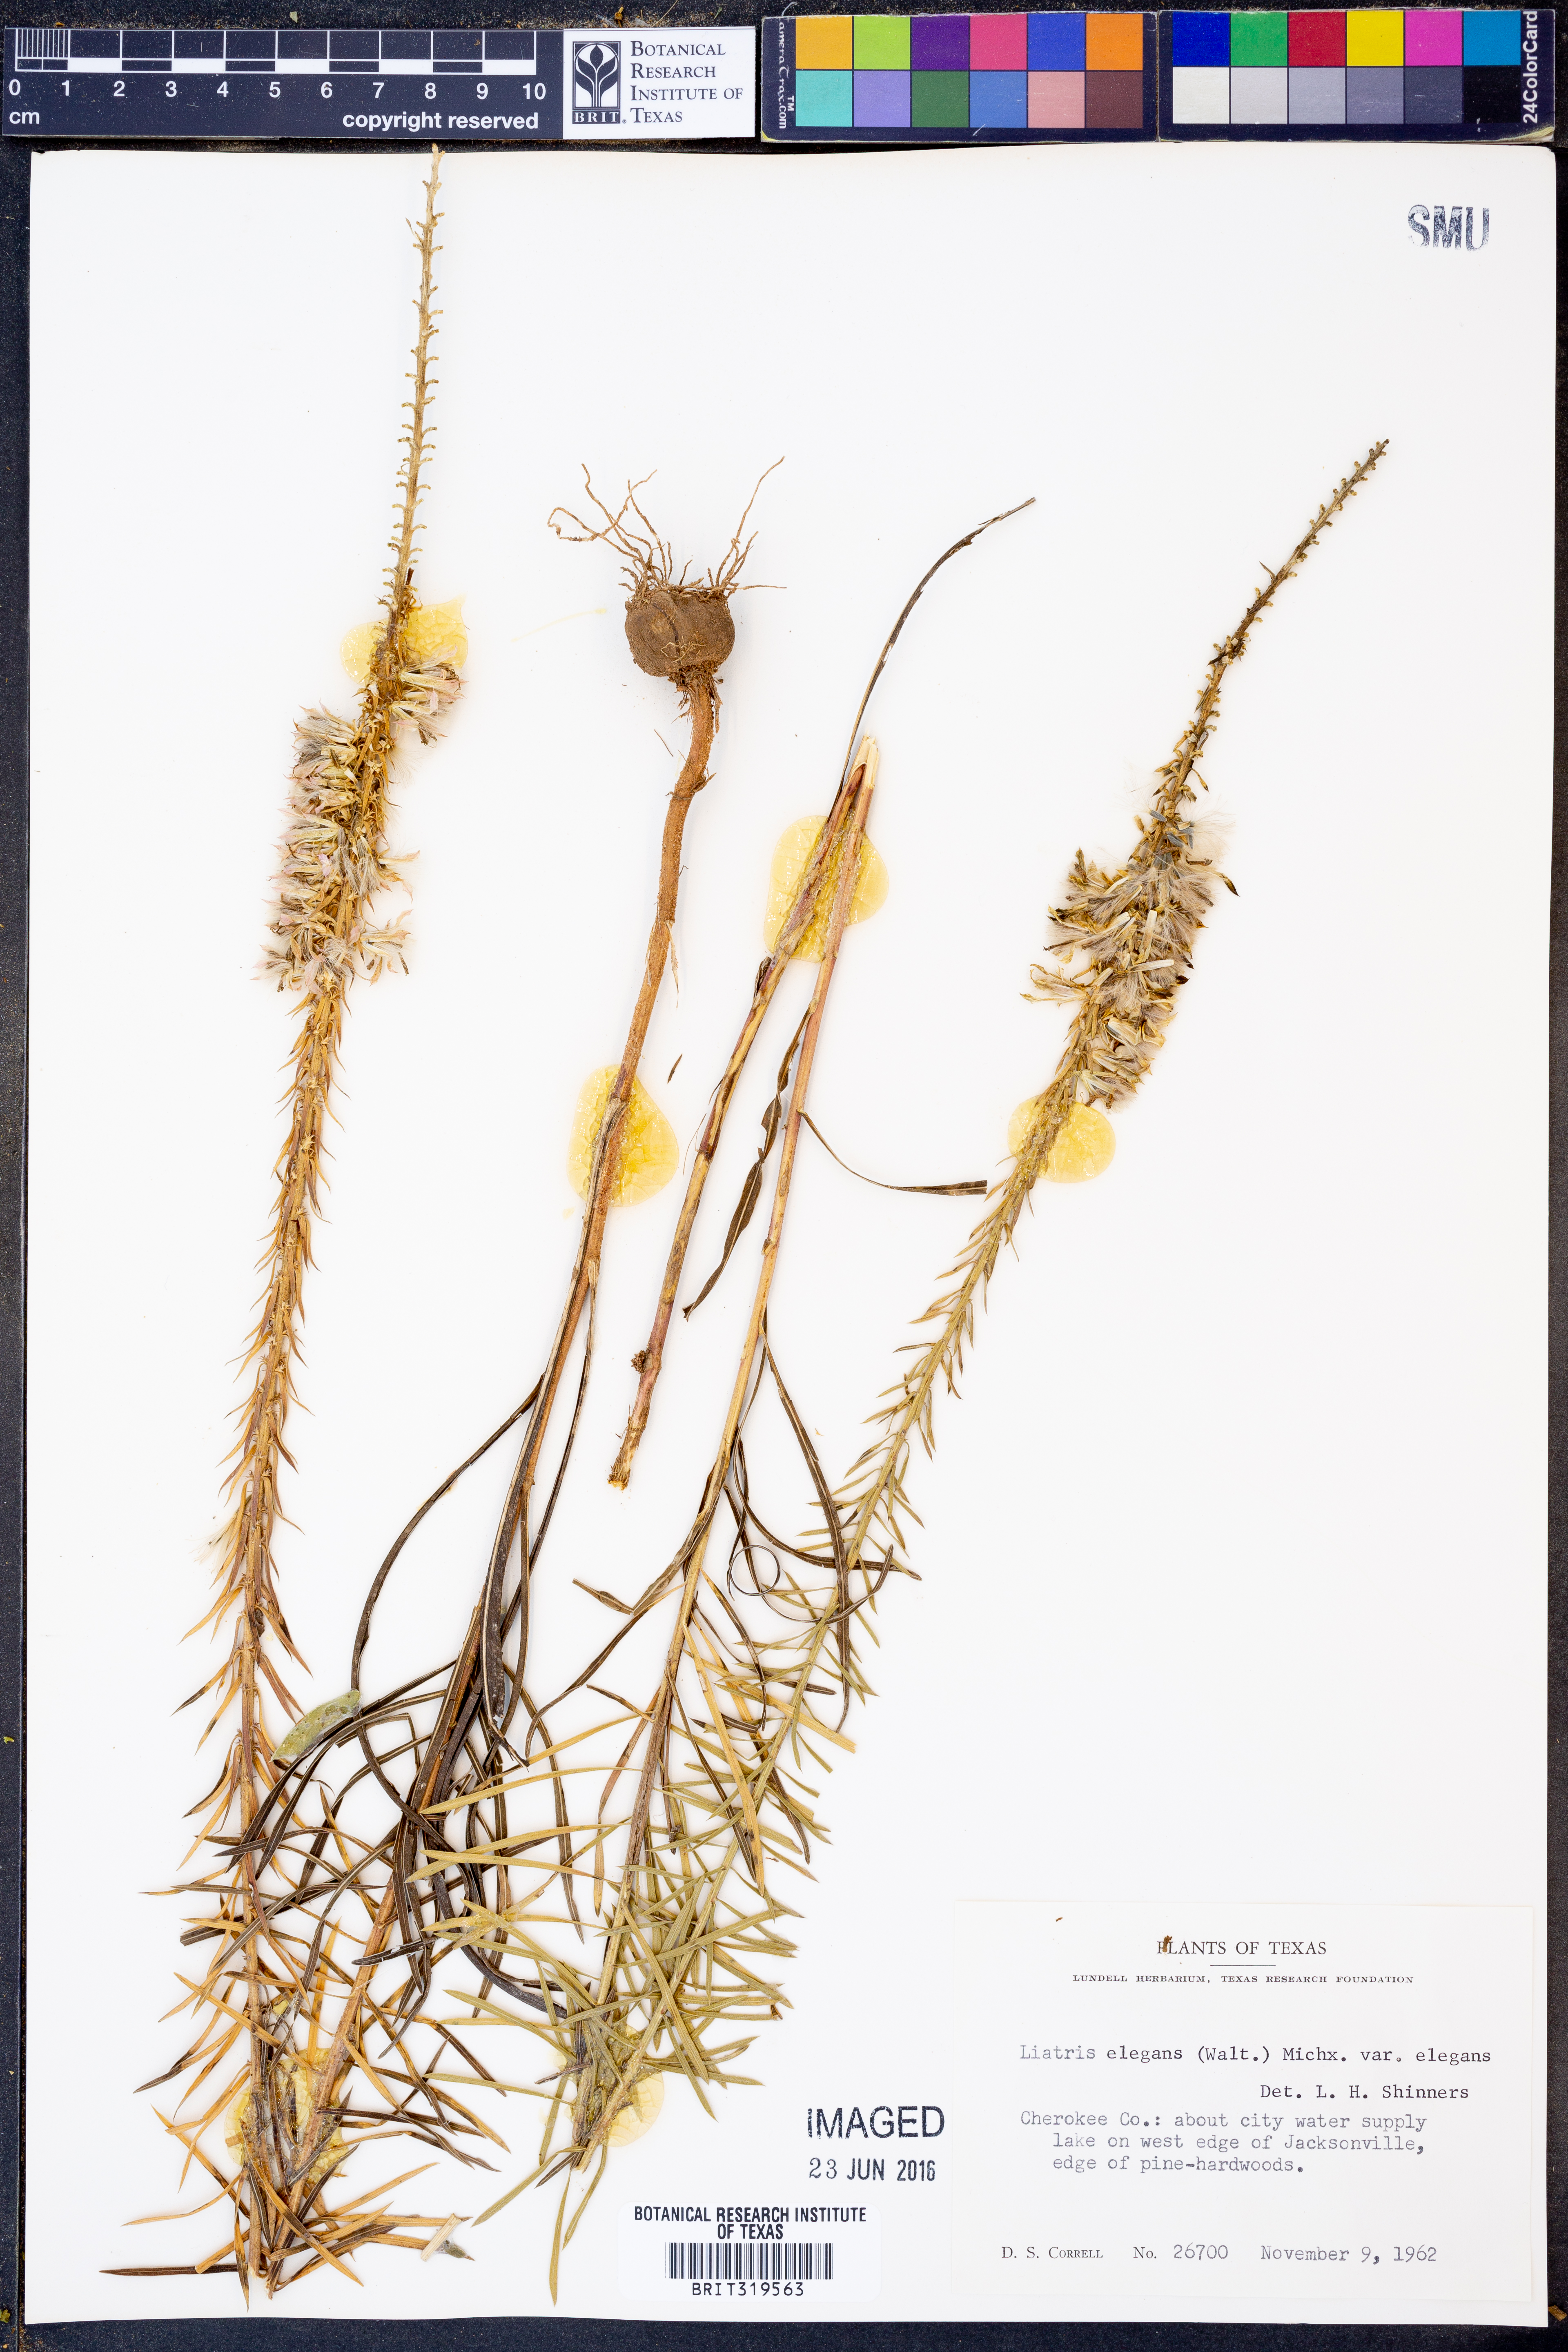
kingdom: Plantae
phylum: Tracheophyta
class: Magnoliopsida
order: Asterales
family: Asteraceae
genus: Liatris
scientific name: Liatris elegans
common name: Pinkscale gayfeather
